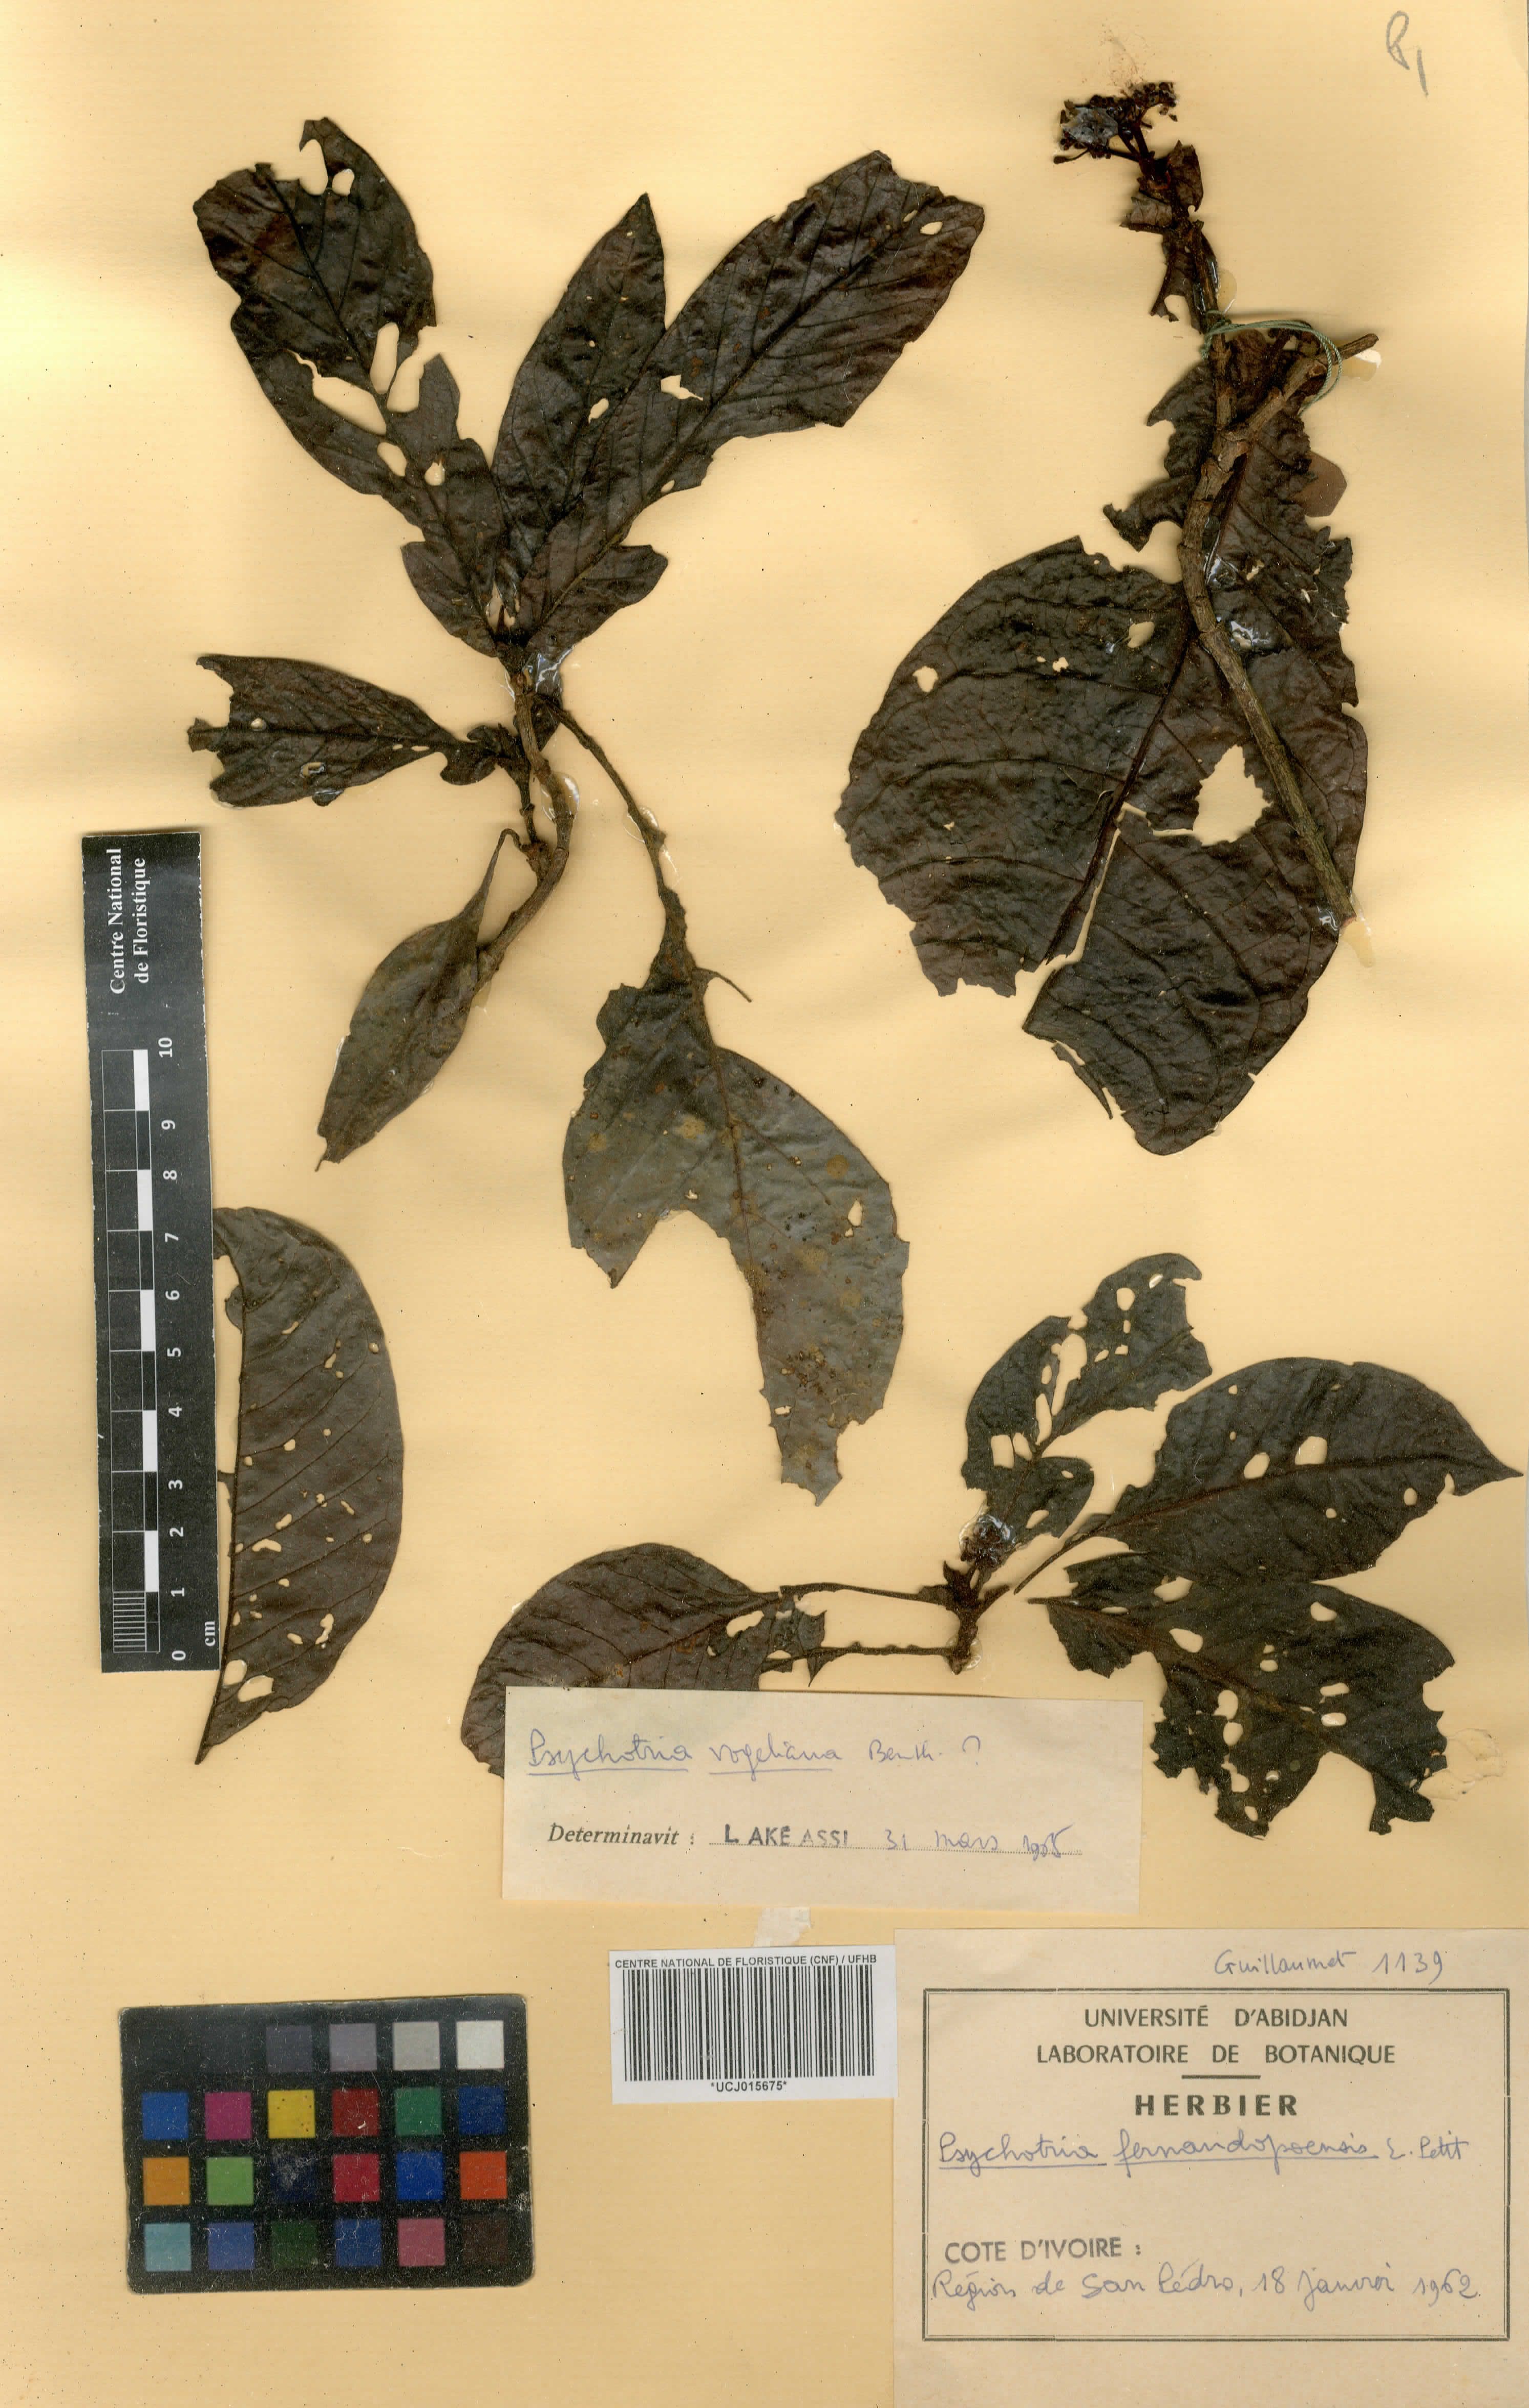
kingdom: Plantae
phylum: Tracheophyta
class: Magnoliopsida
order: Gentianales
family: Rubiaceae
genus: Psychotria
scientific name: Psychotria fernandopoensis
